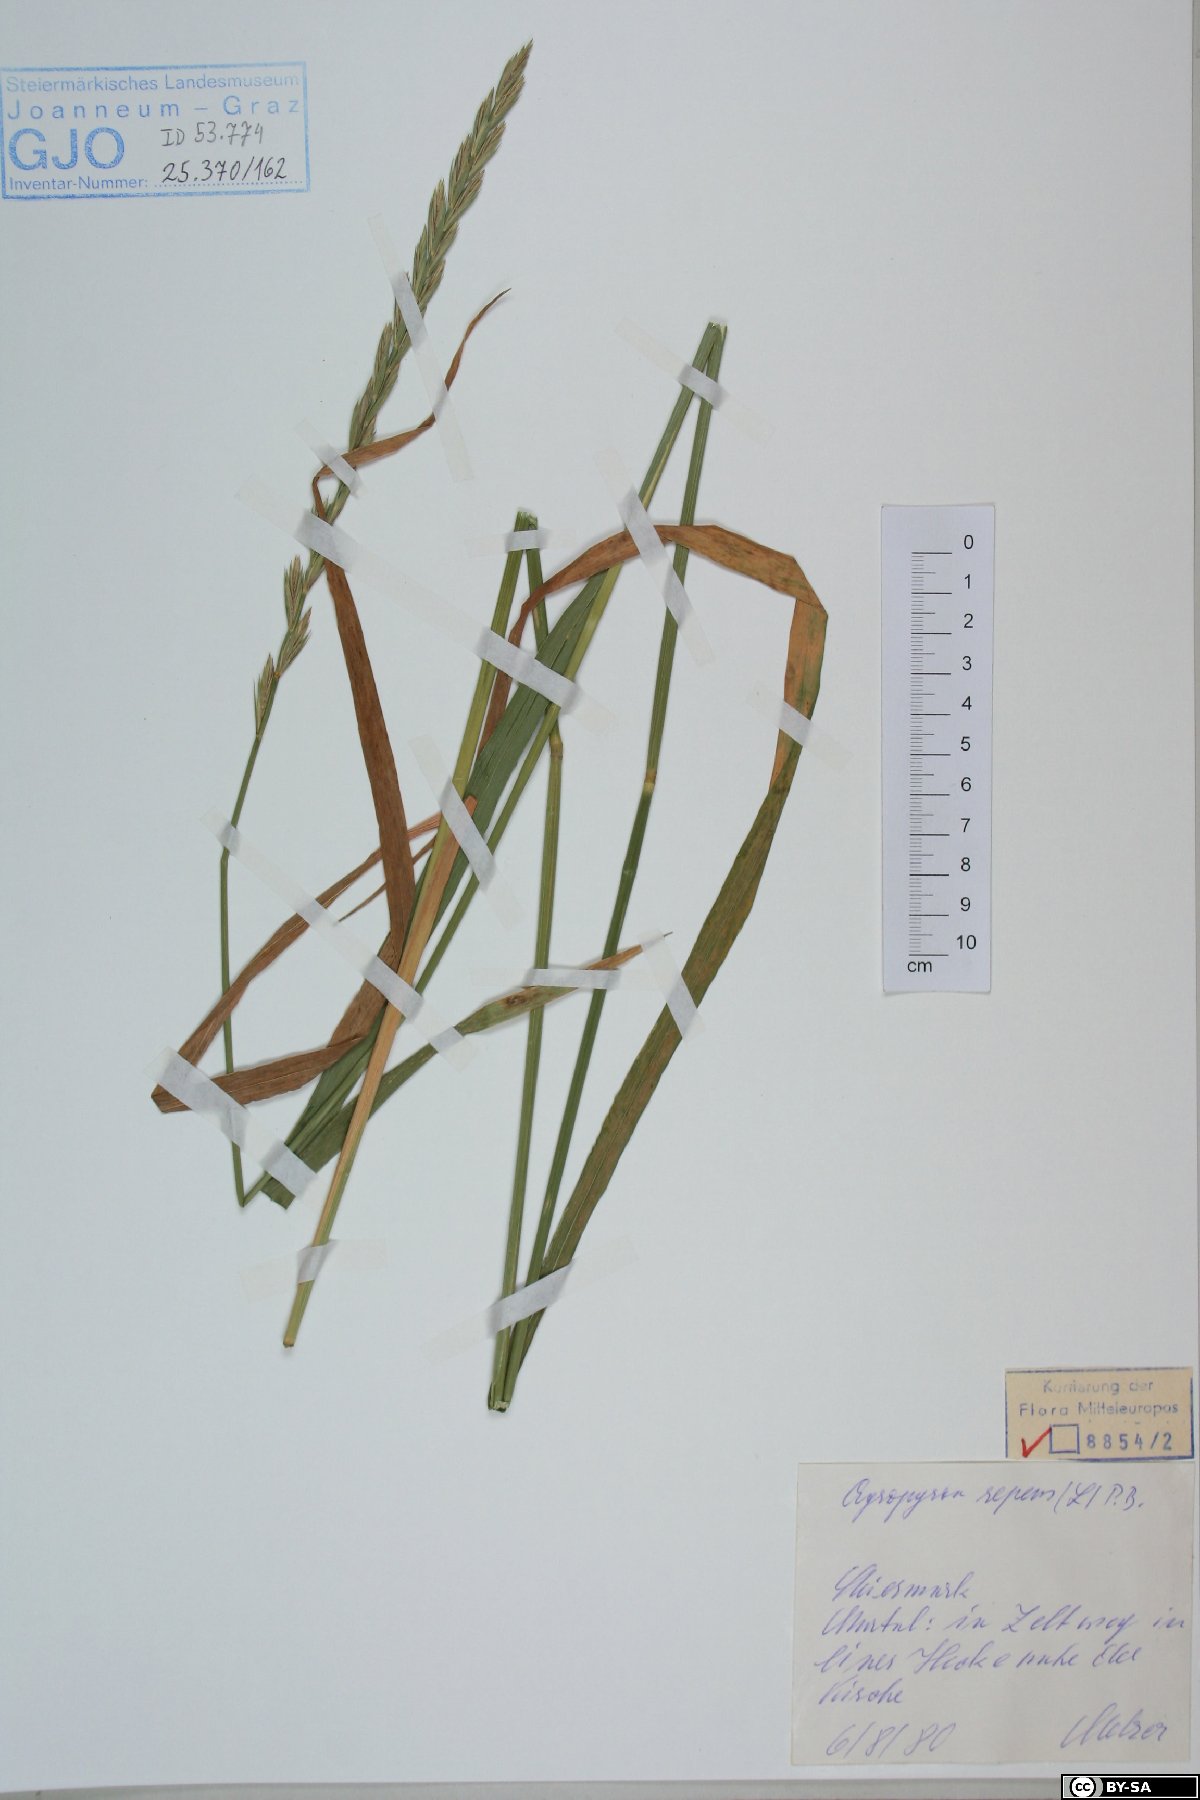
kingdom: Plantae
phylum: Tracheophyta
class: Liliopsida
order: Poales
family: Poaceae
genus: Elymus
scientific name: Elymus repens
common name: Quackgrass
